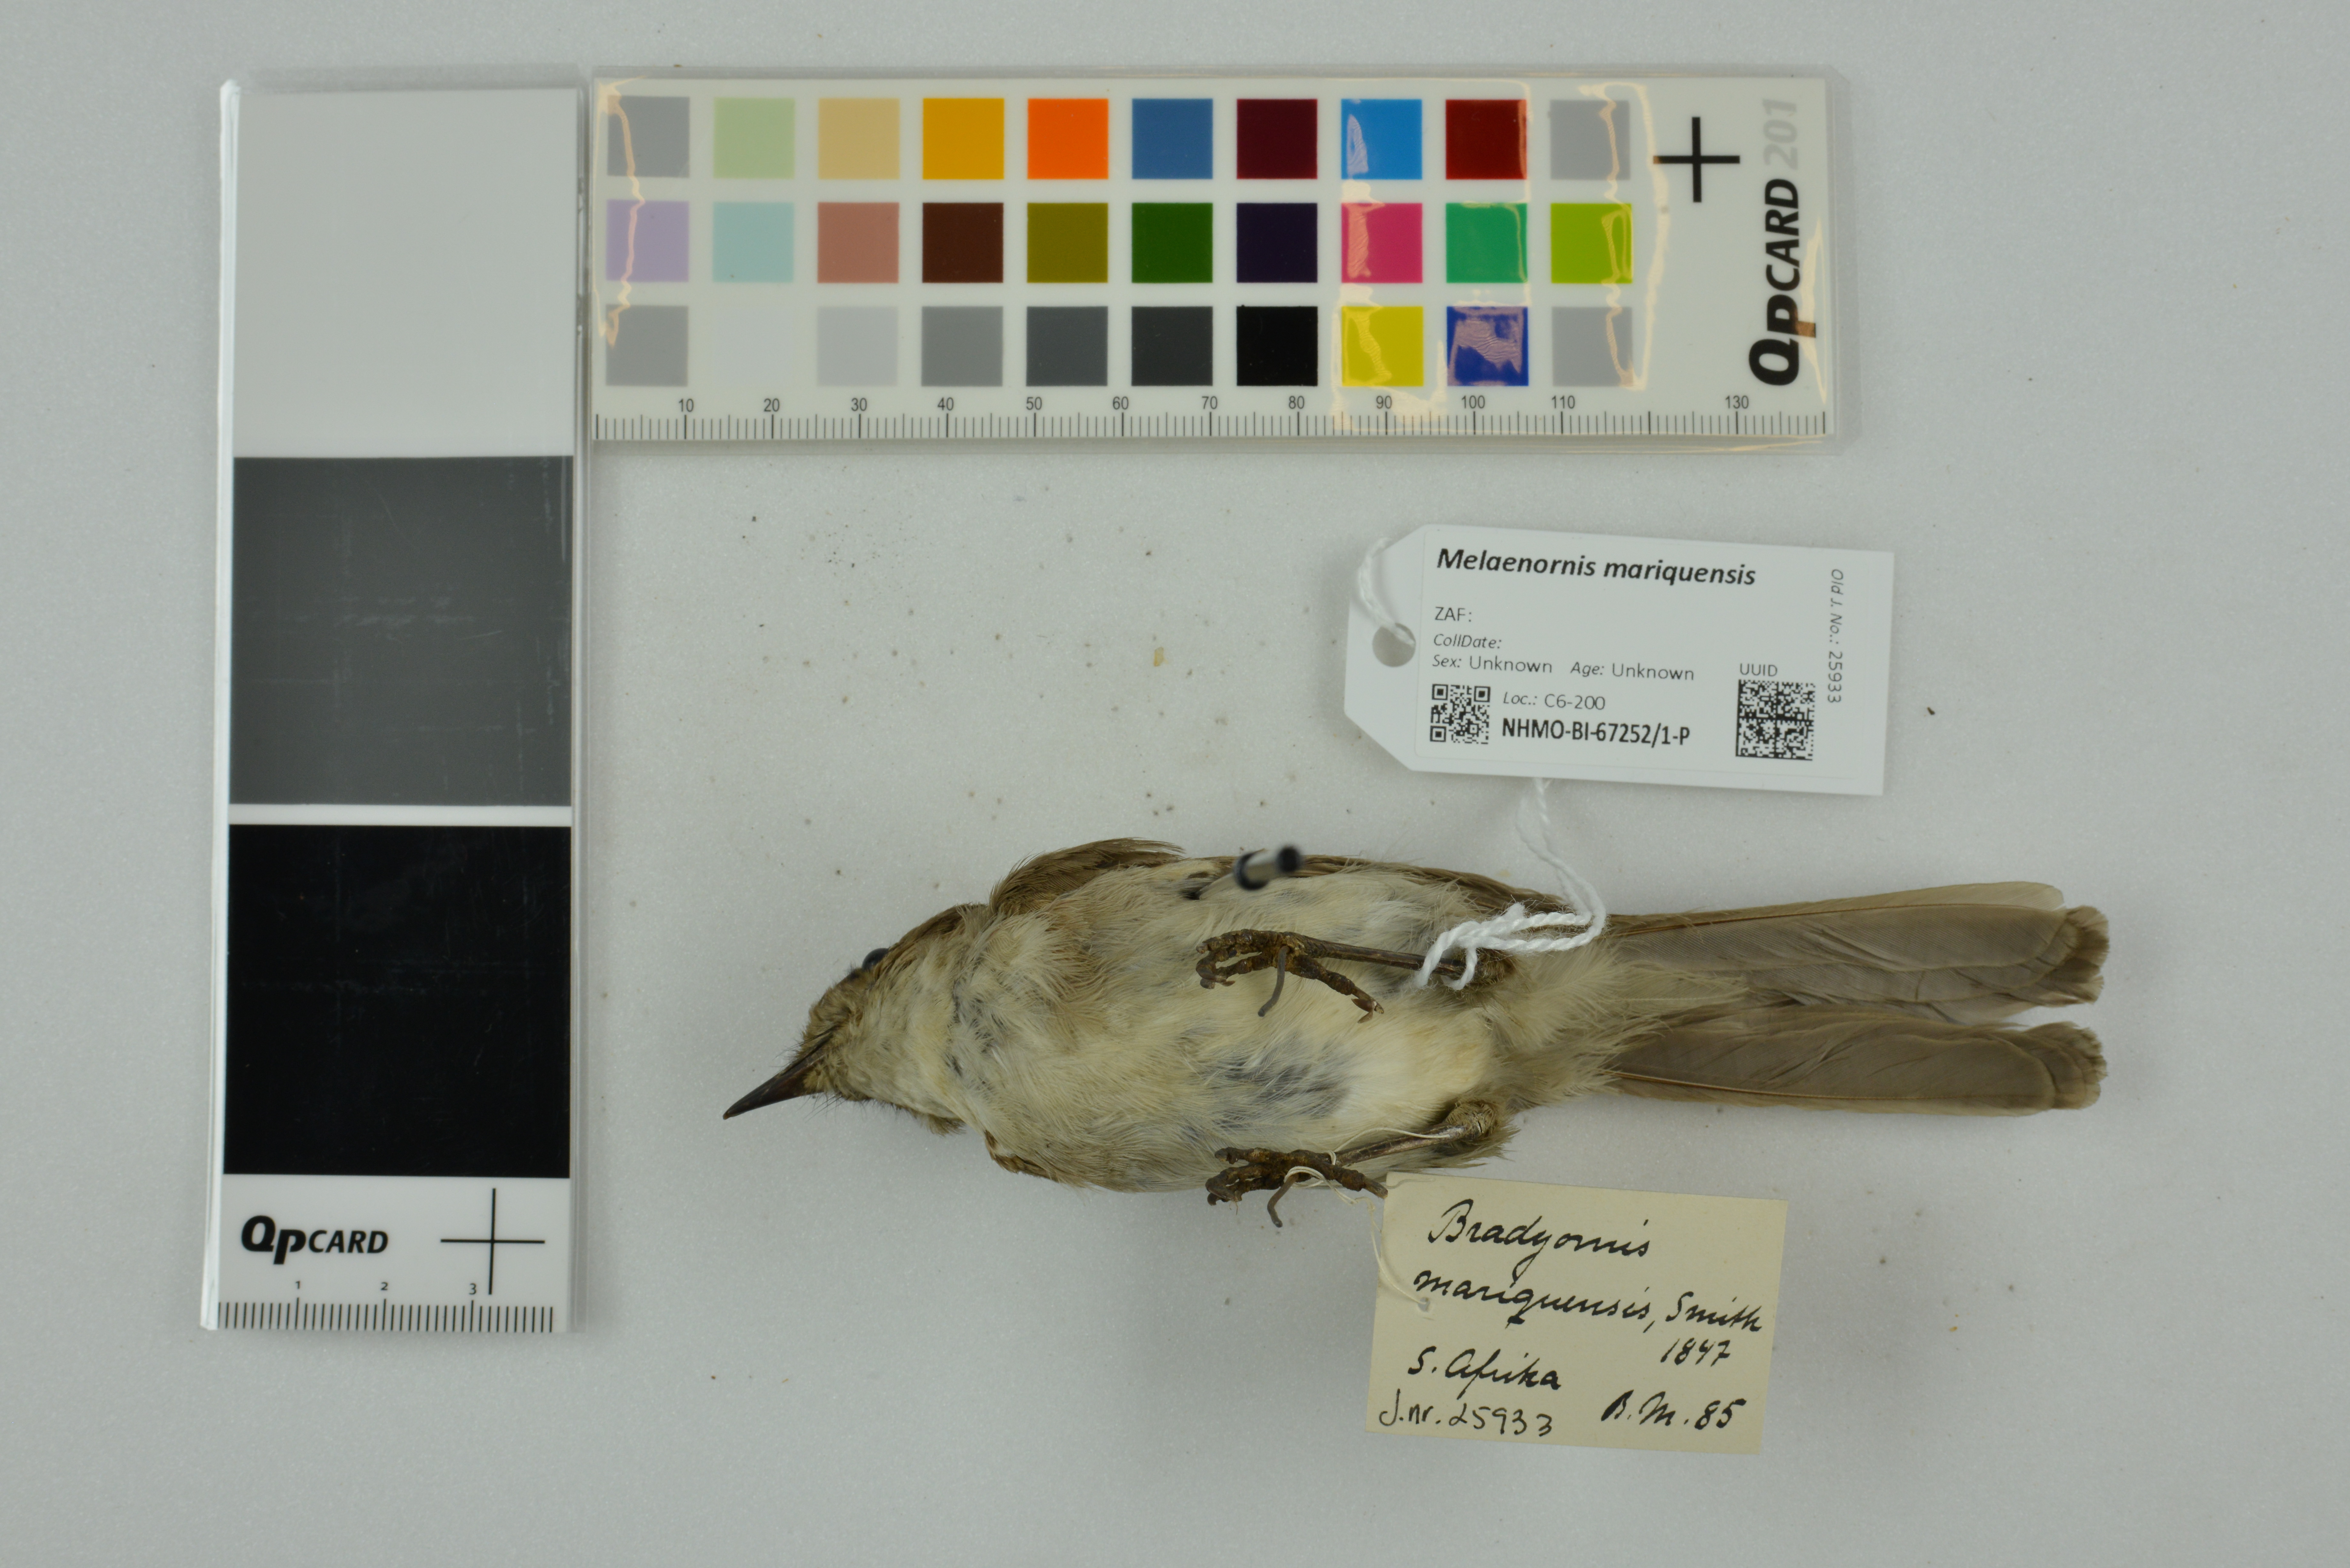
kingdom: Animalia
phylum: Chordata
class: Aves
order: Passeriformes
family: Muscicapidae
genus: Melaenornis
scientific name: Melaenornis
